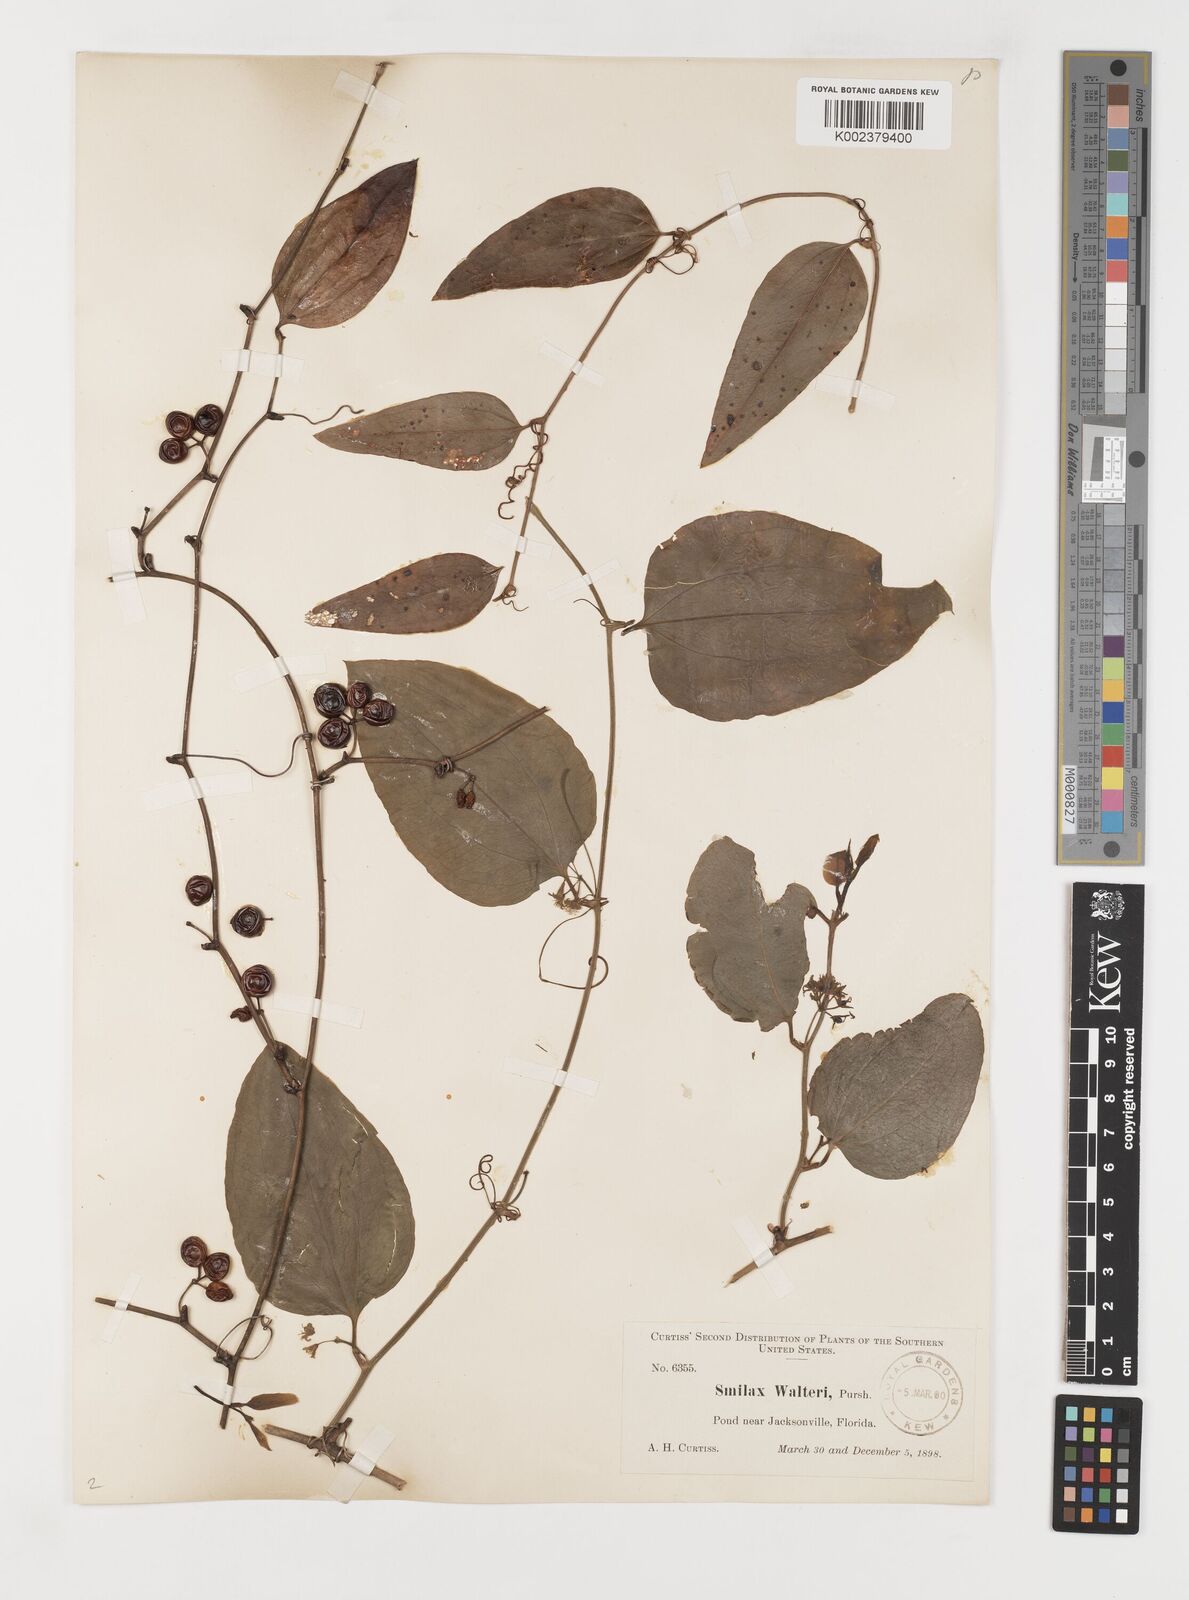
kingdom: Plantae
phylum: Tracheophyta
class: Liliopsida
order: Liliales
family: Smilacaceae
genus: Smilax
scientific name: Smilax walteri
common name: Coral greenbrier
